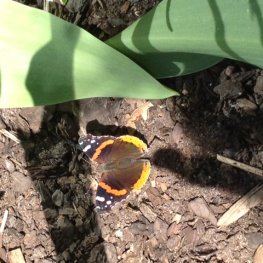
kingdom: Animalia
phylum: Arthropoda
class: Insecta
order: Lepidoptera
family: Nymphalidae
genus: Vanessa
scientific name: Vanessa atalanta
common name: Red Admiral
